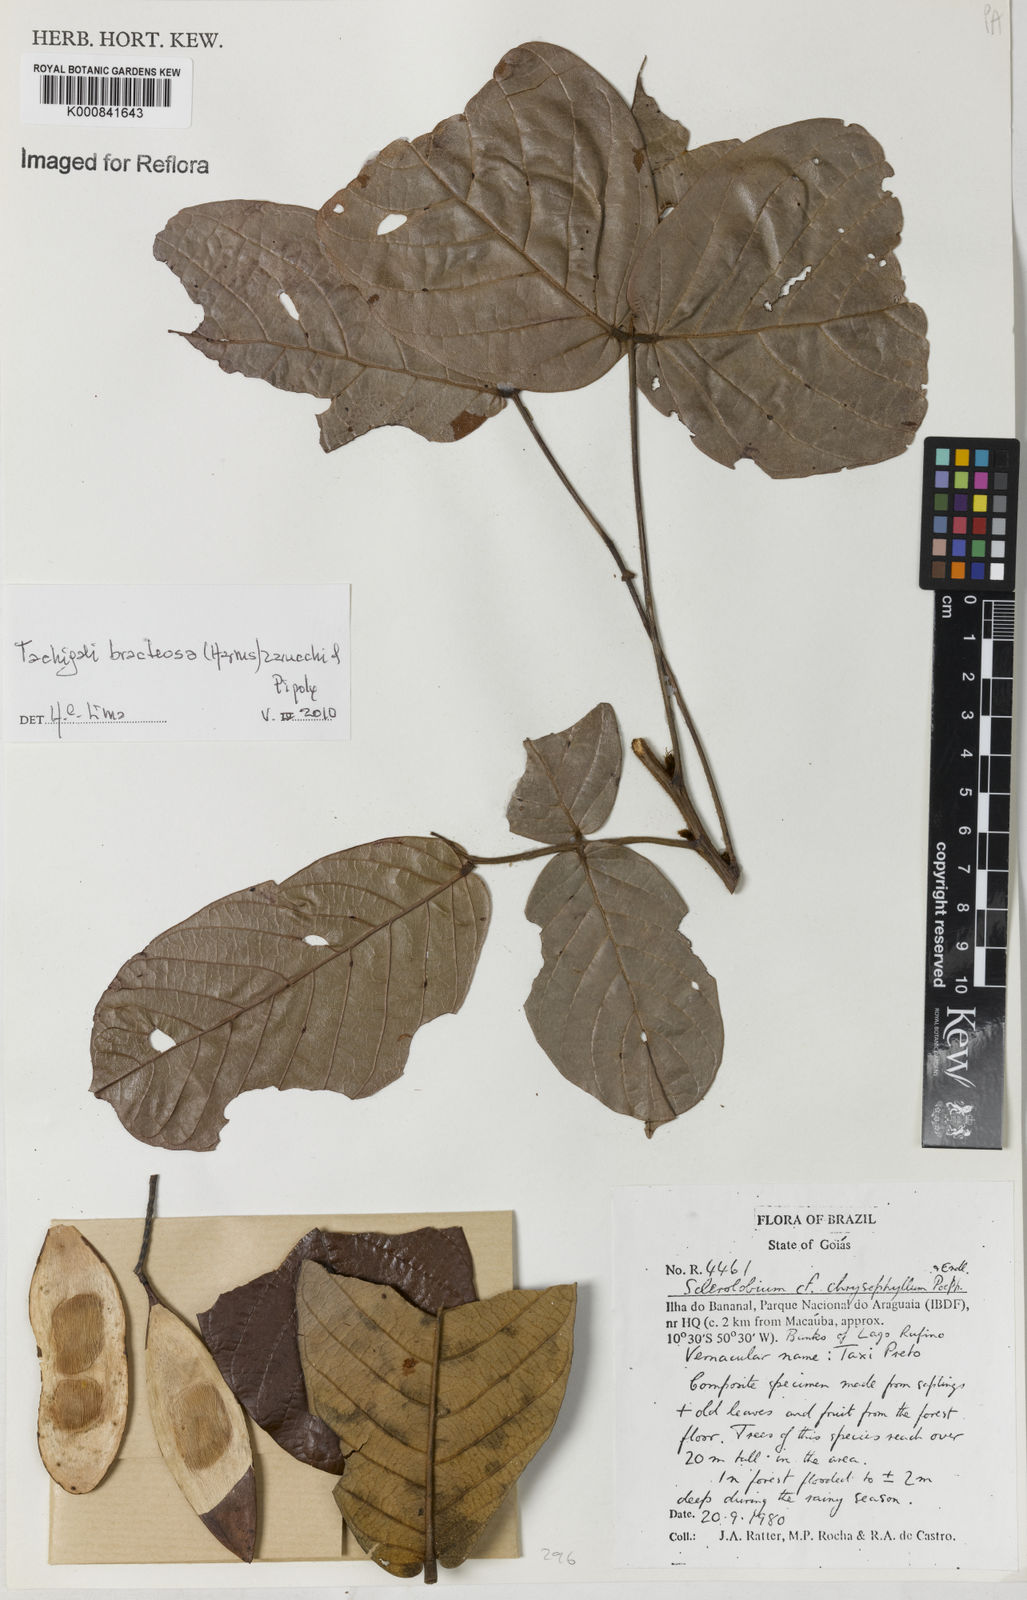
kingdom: Plantae
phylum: Tracheophyta
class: Magnoliopsida
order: Fabales
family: Fabaceae
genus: Tachigali
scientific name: Tachigali bracteosa
